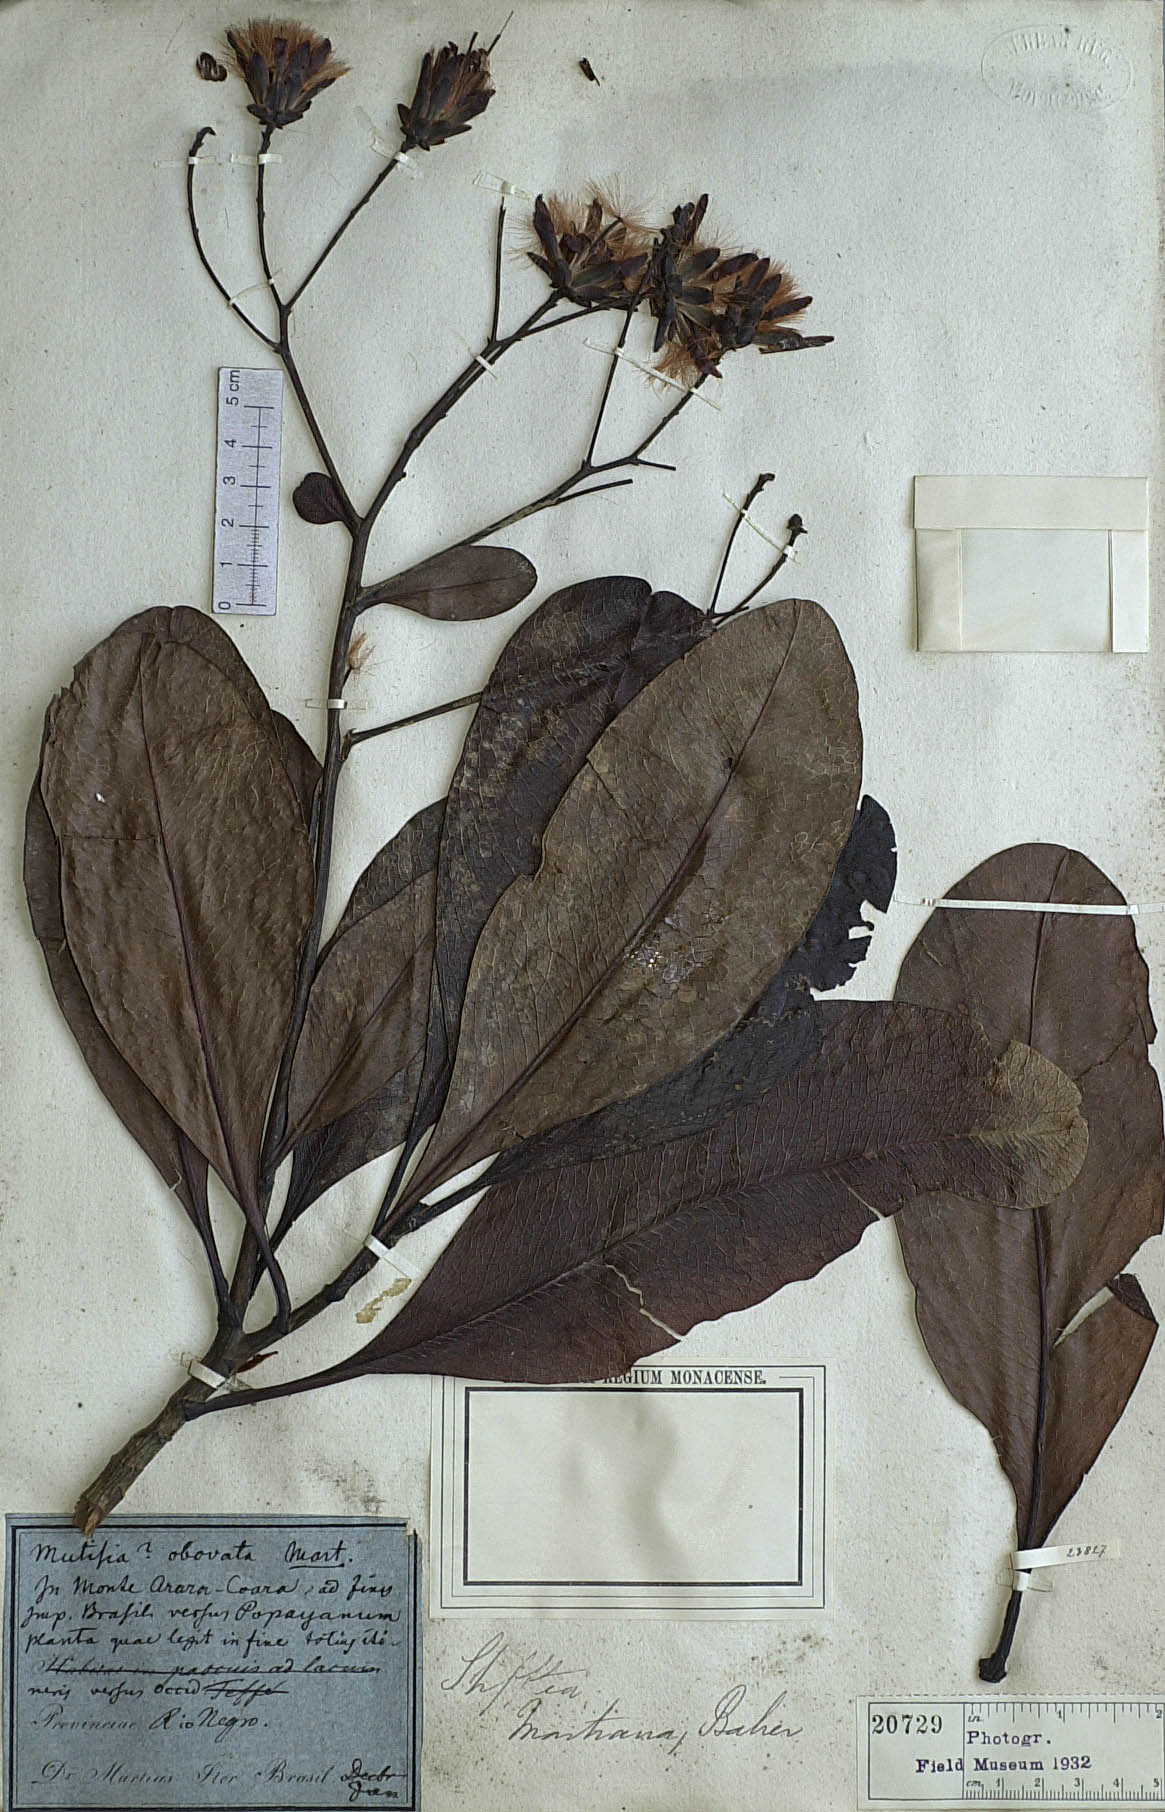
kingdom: Plantae
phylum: Tracheophyta
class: Magnoliopsida
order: Asterales
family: Asteraceae
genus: Gongylolepis
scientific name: Gongylolepis martiana
